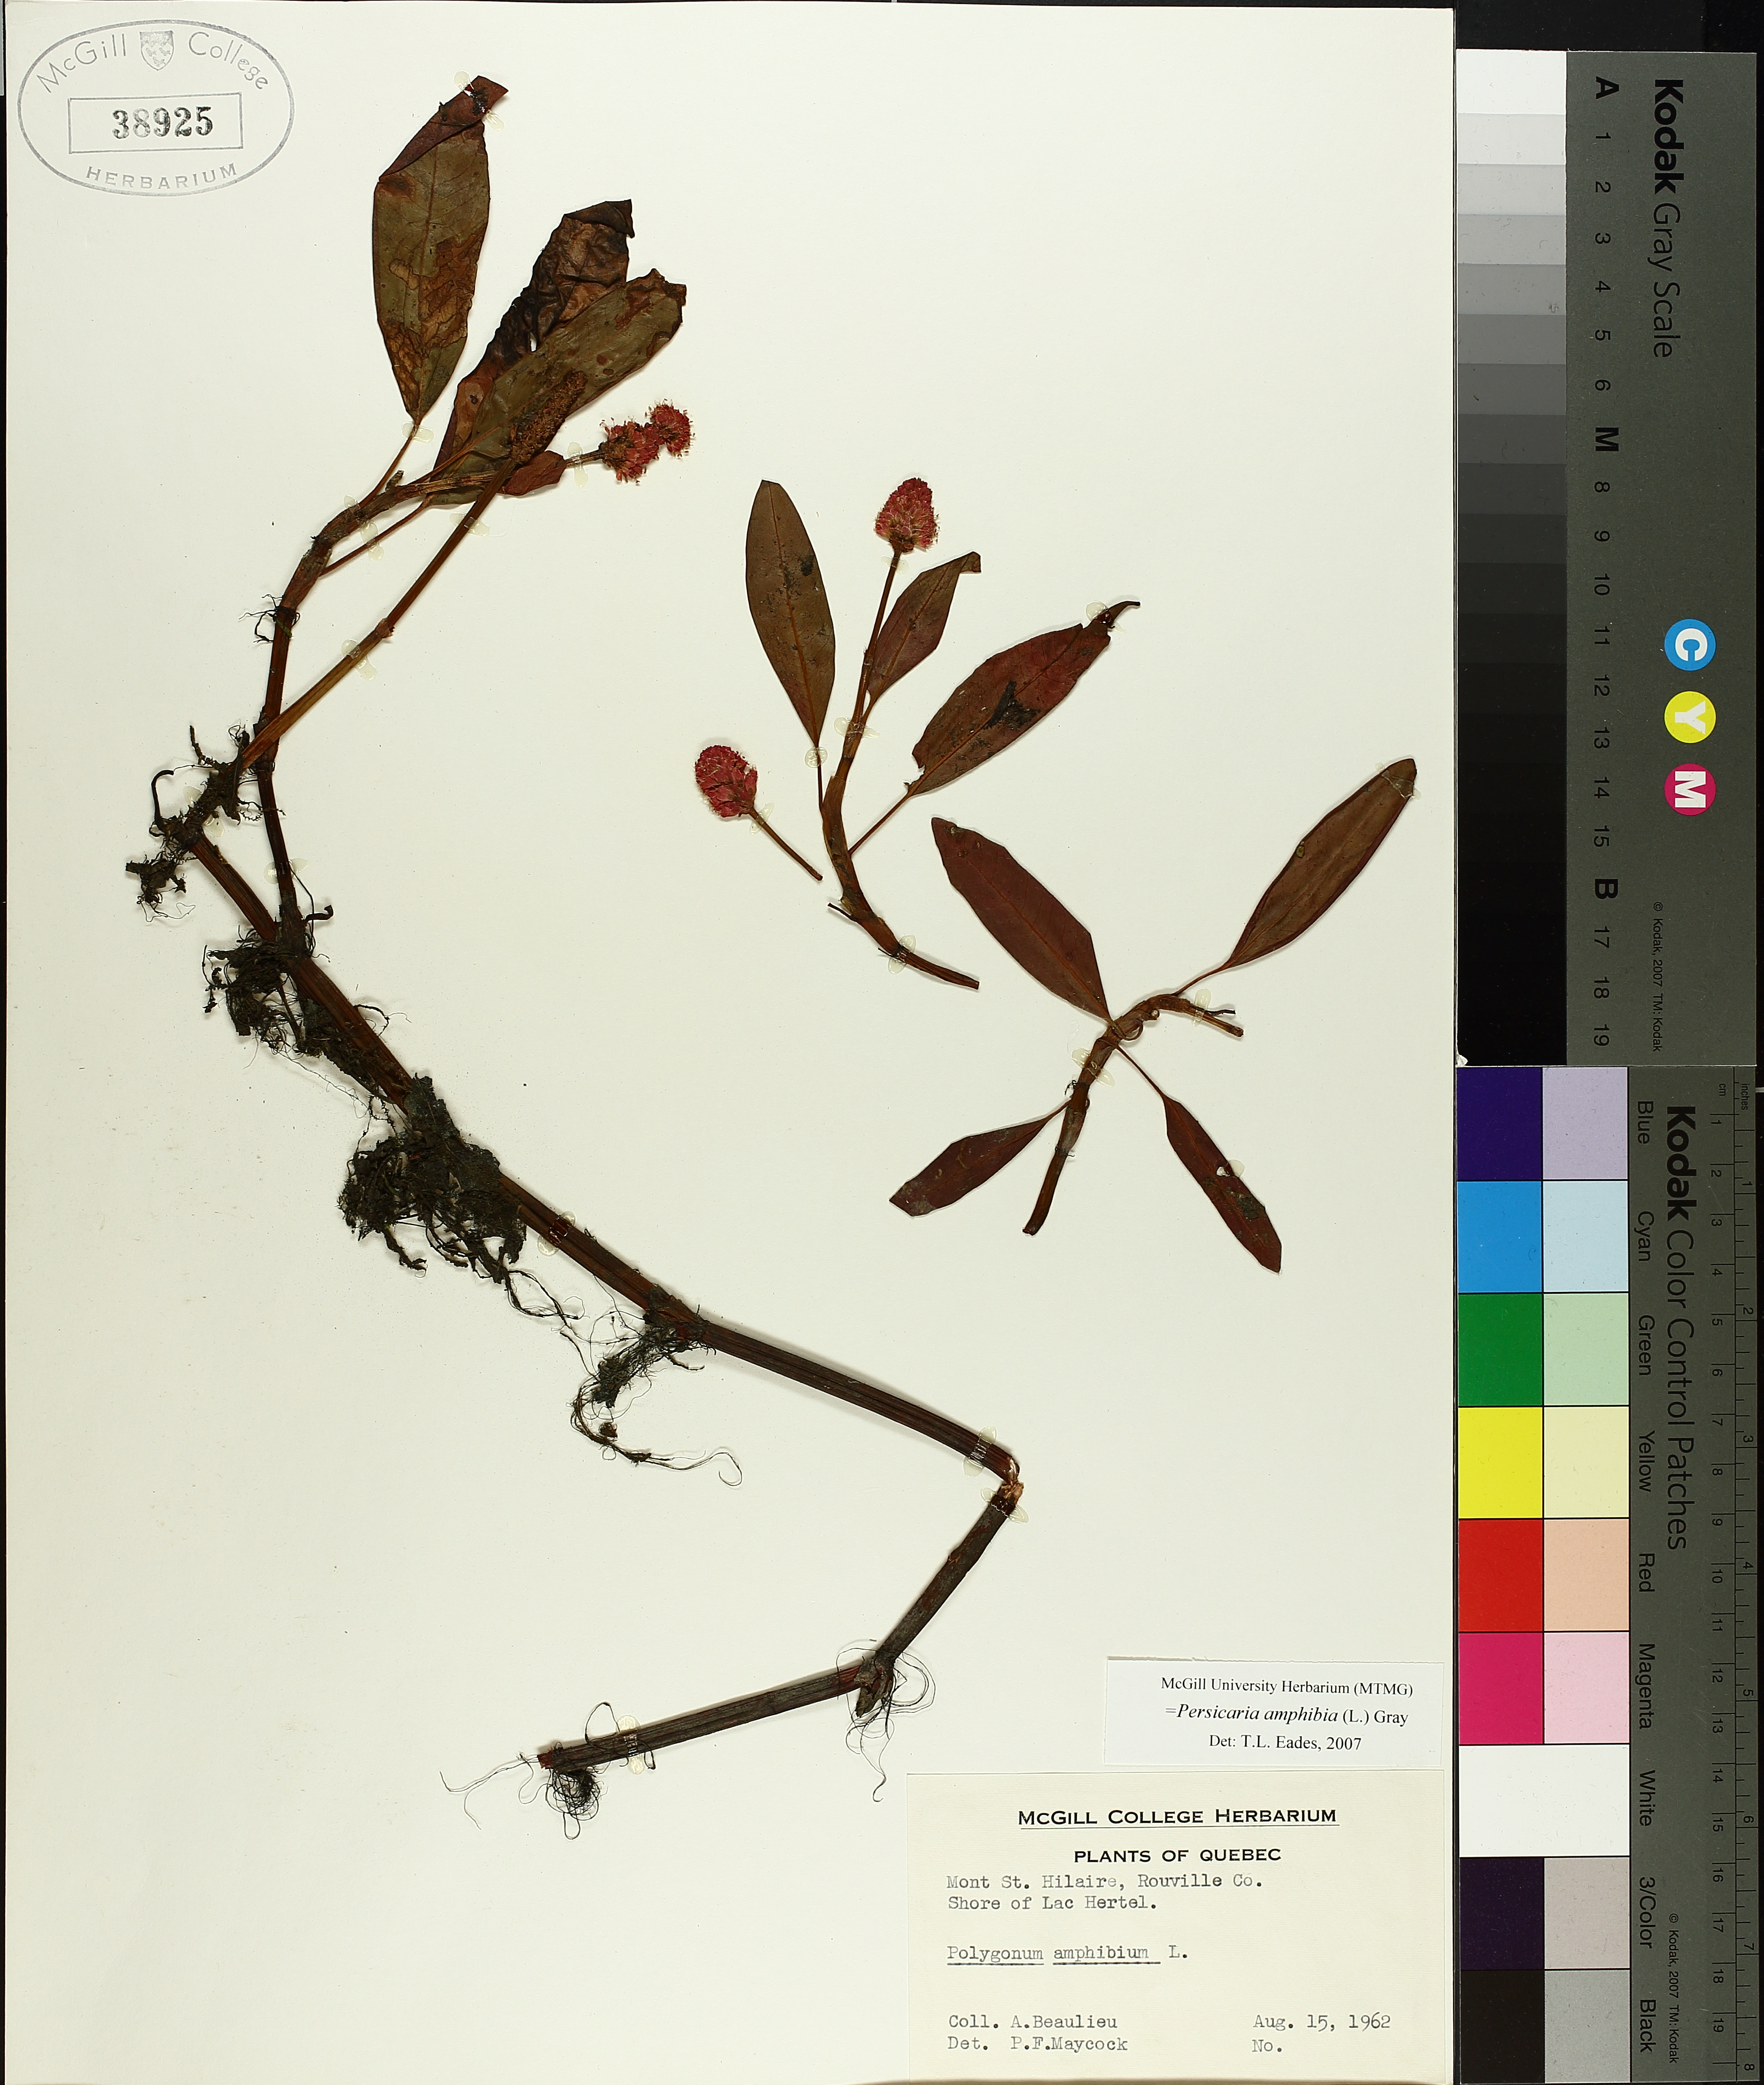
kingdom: Plantae
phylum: Tracheophyta
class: Magnoliopsida
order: Caryophyllales
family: Polygonaceae
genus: Persicaria
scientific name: Persicaria amphibia
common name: Amphibious bistort
